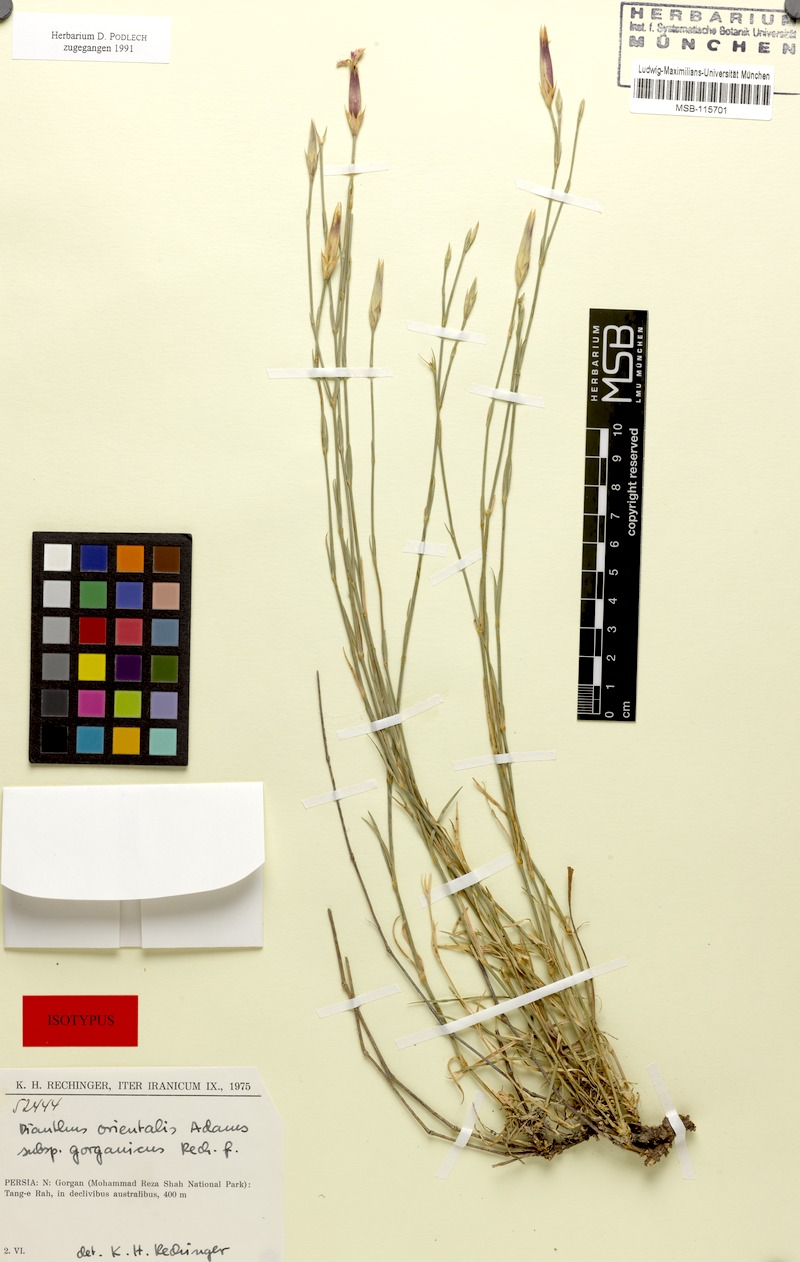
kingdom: Plantae
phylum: Tracheophyta
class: Magnoliopsida
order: Caryophyllales
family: Caryophyllaceae
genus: Dianthus
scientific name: Dianthus orientalis
